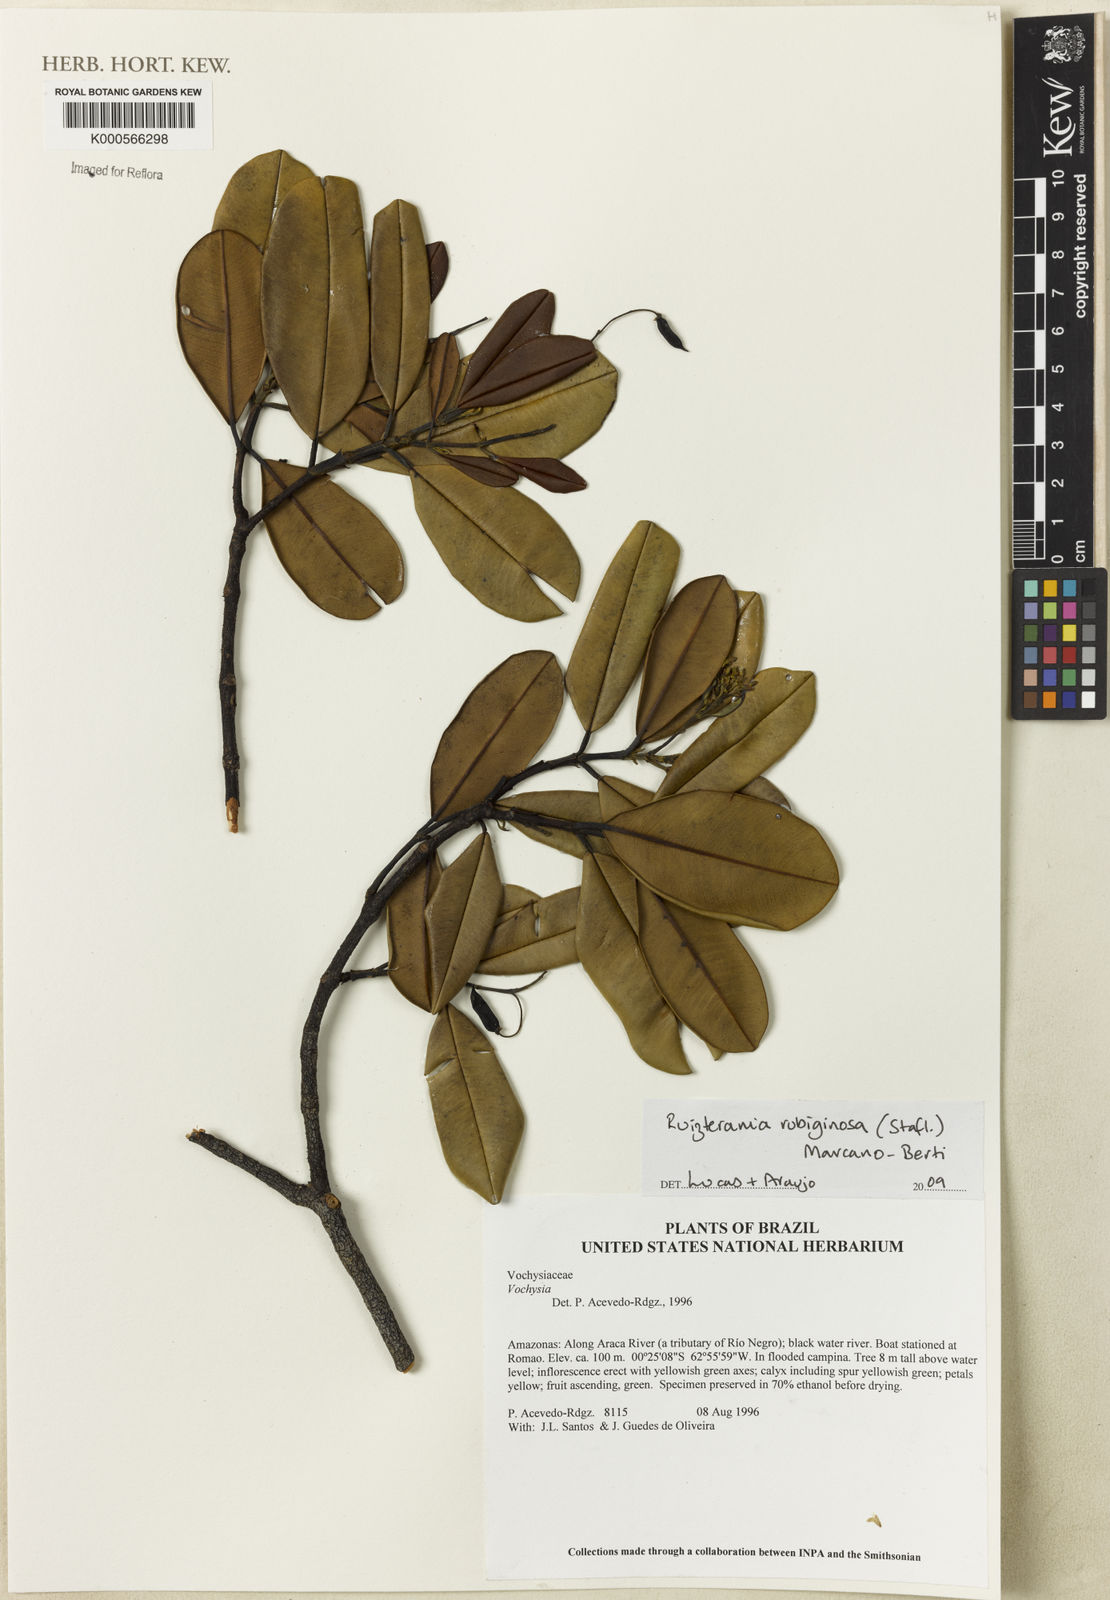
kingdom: Plantae
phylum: Tracheophyta
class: Magnoliopsida
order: Myrtales
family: Vochysiaceae
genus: Ruizterania
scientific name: Ruizterania ferruginea
